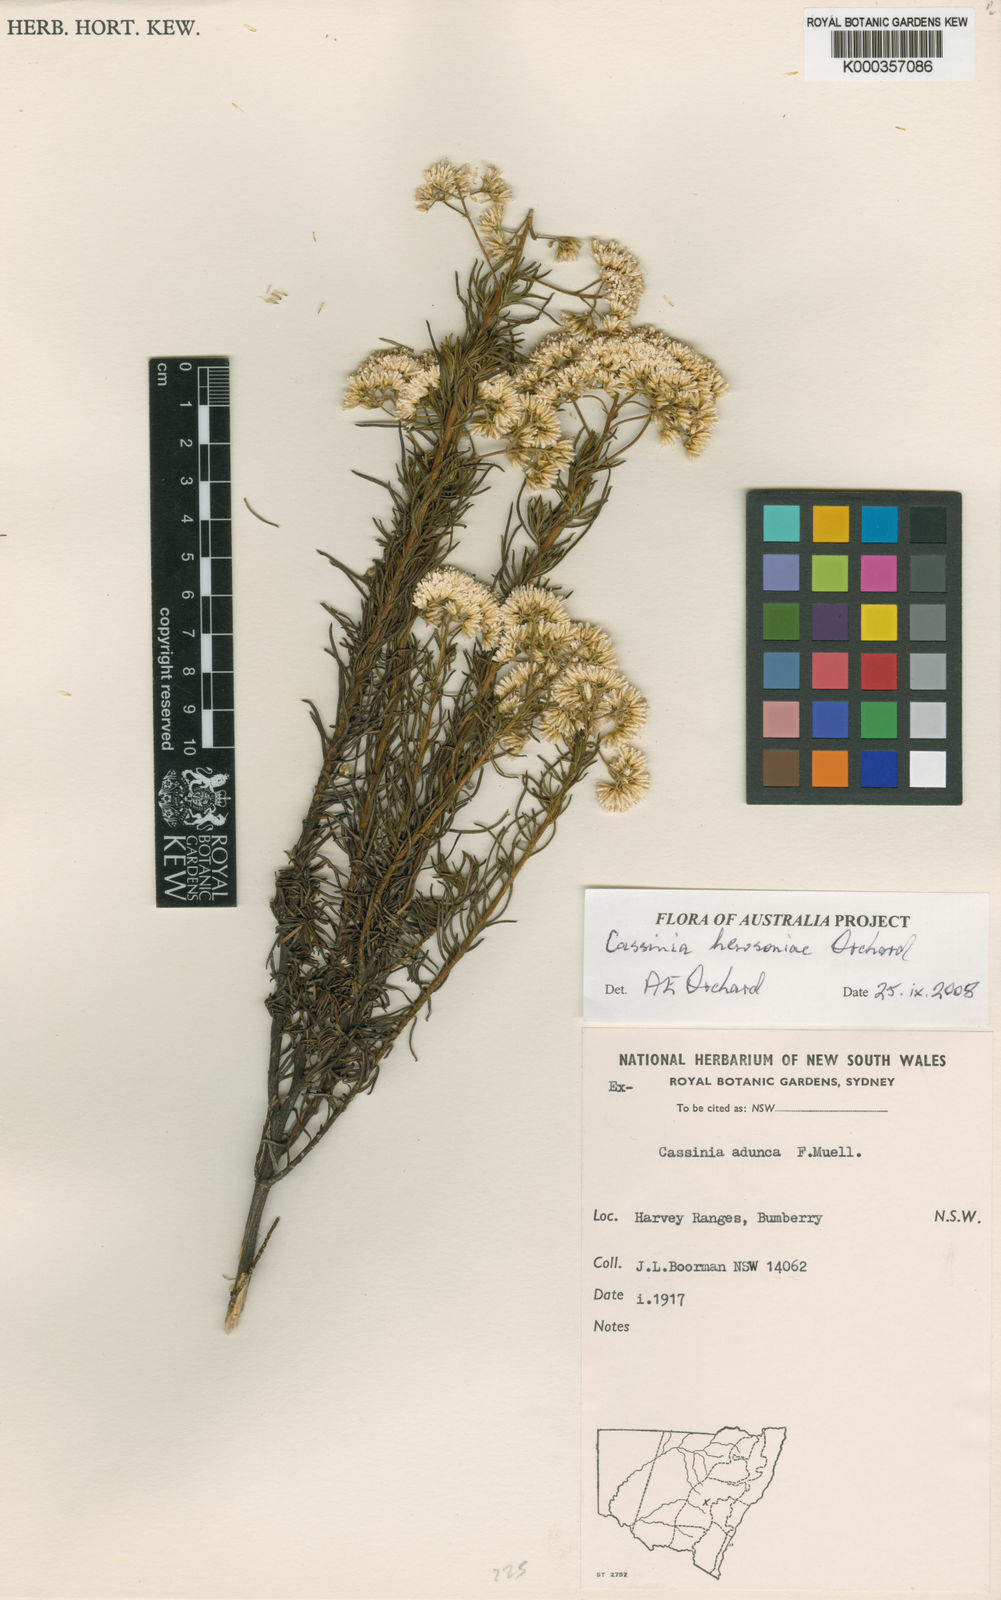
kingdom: Plantae
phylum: Tracheophyta
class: Magnoliopsida
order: Asterales
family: Asteraceae
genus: Cassinia
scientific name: Cassinia hewsoniae
